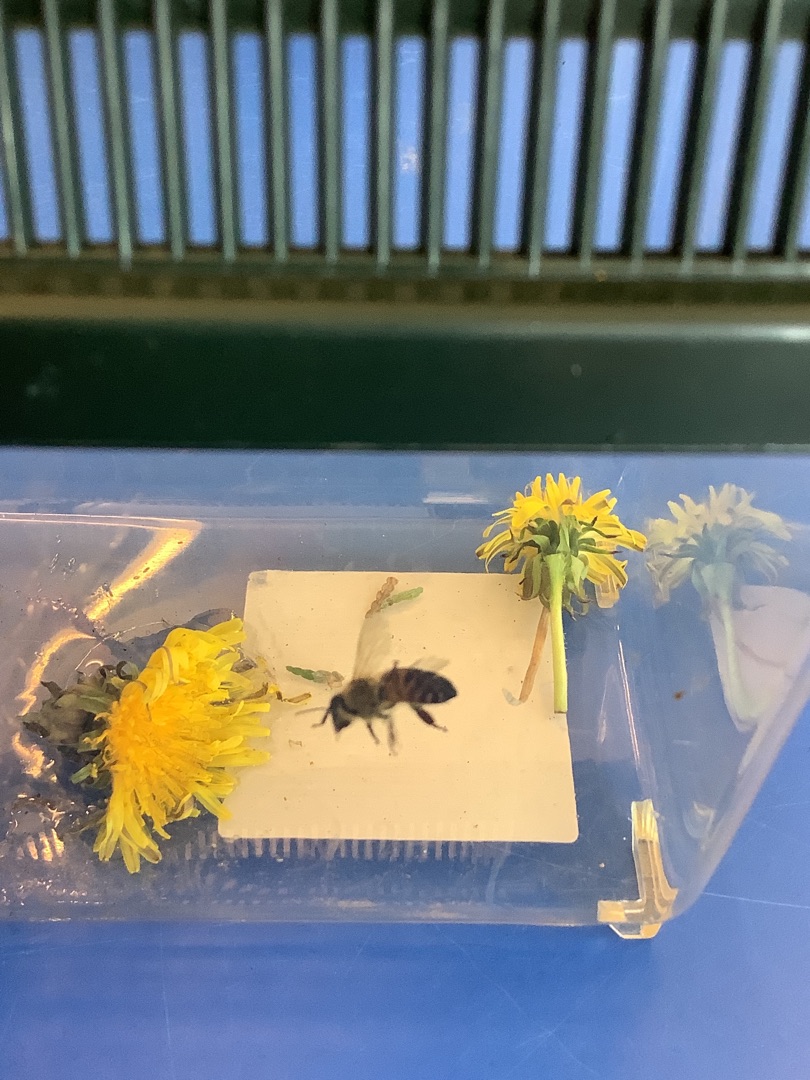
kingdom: Animalia
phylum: Arthropoda
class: Insecta
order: Hymenoptera
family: Apidae
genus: Apis
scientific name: Apis mellifera
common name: Honningbi
